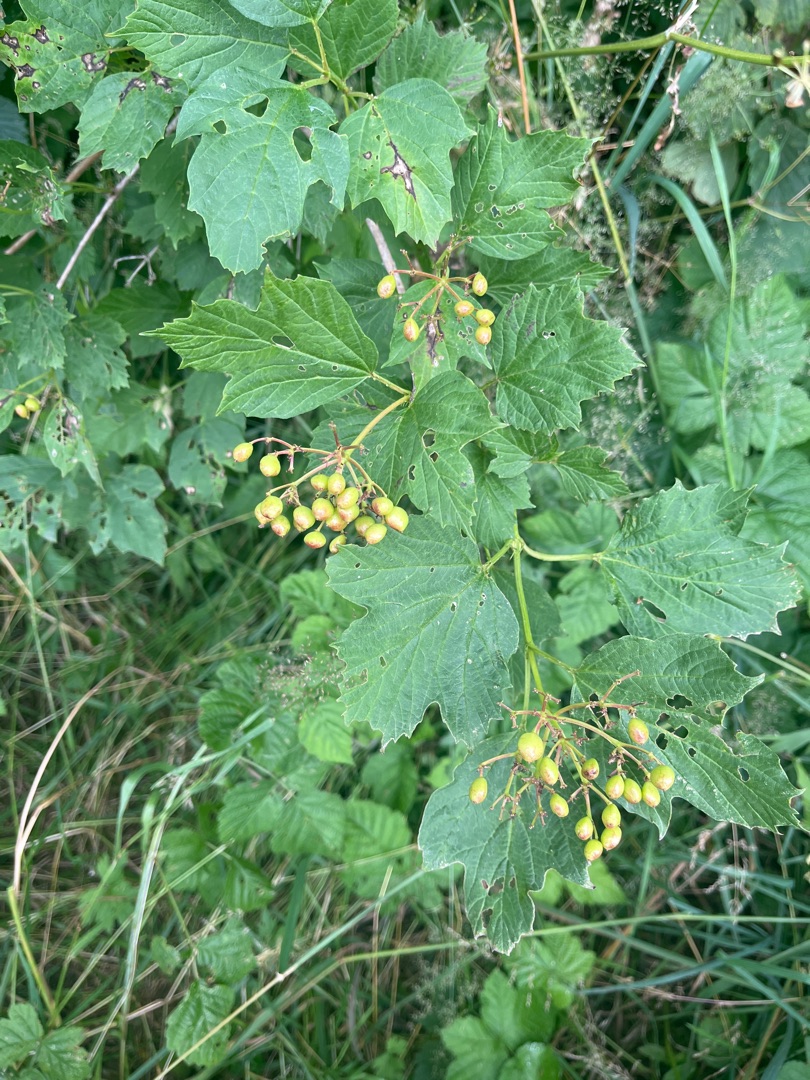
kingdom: Plantae
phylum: Tracheophyta
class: Magnoliopsida
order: Dipsacales
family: Viburnaceae
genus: Viburnum
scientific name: Viburnum opulus
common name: Kvalkved
